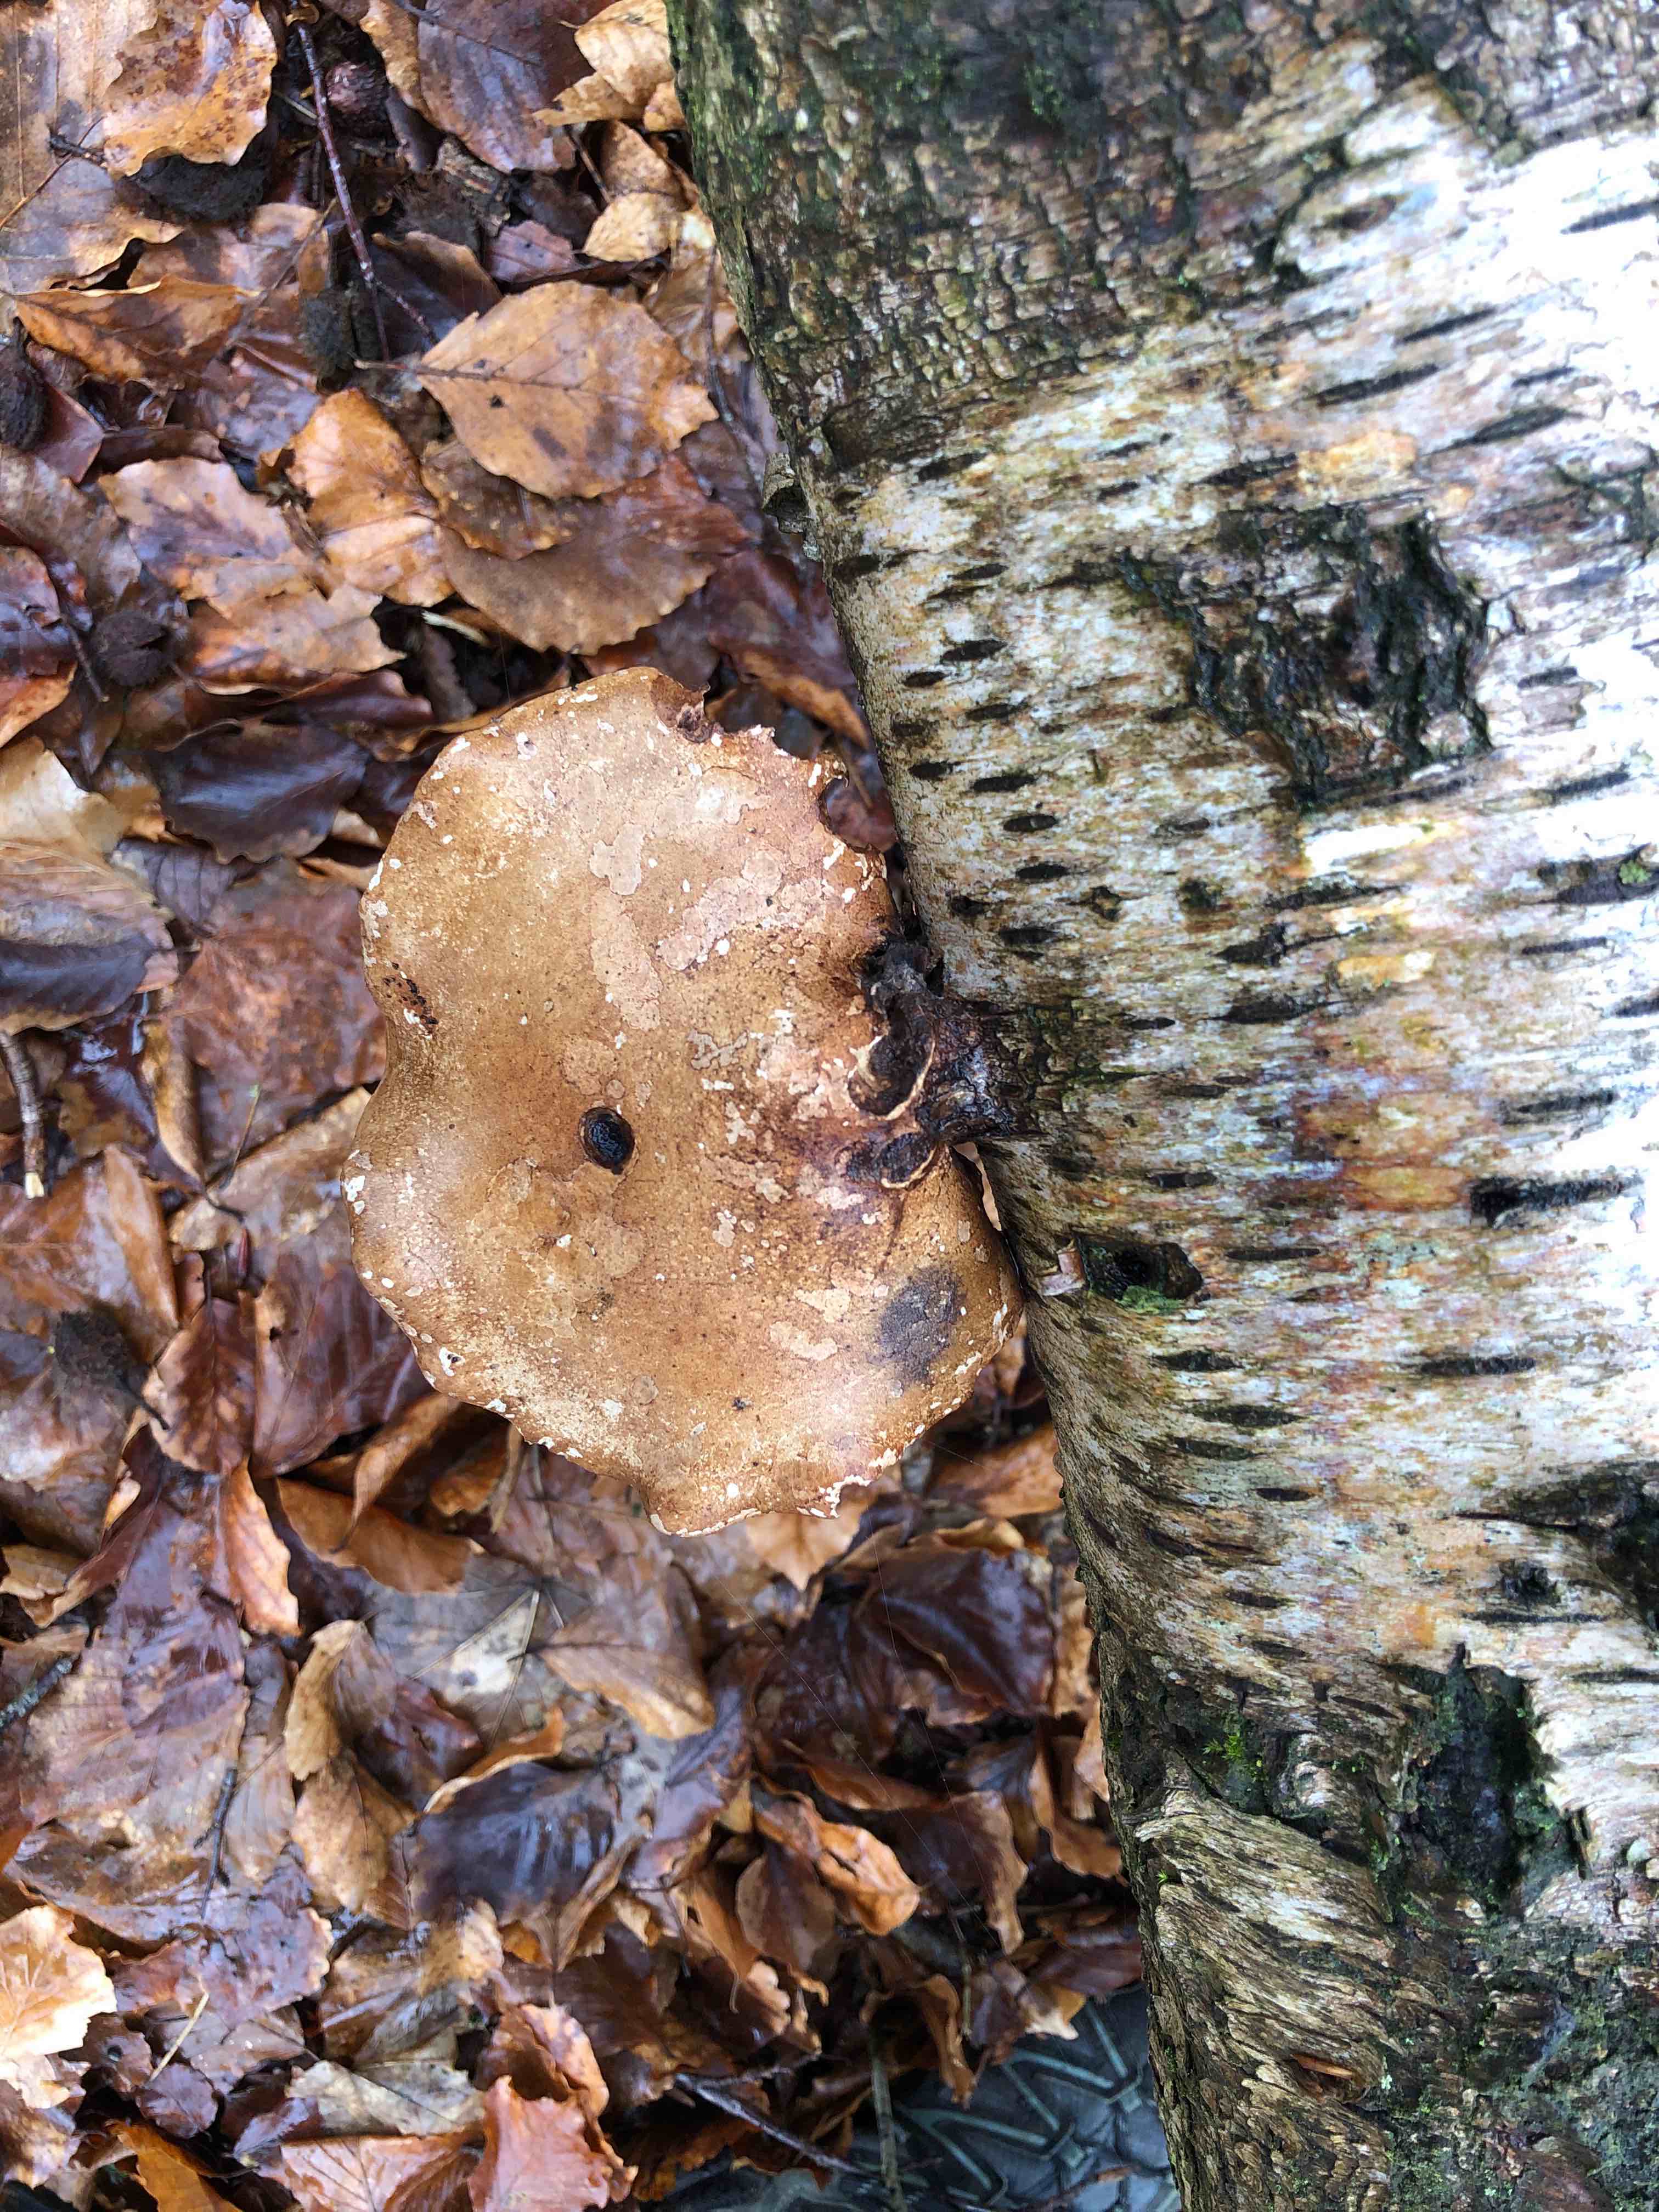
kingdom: Fungi
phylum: Basidiomycota
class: Agaricomycetes
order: Polyporales
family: Fomitopsidaceae
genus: Fomitopsis
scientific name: Fomitopsis betulina
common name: birkeporesvamp
